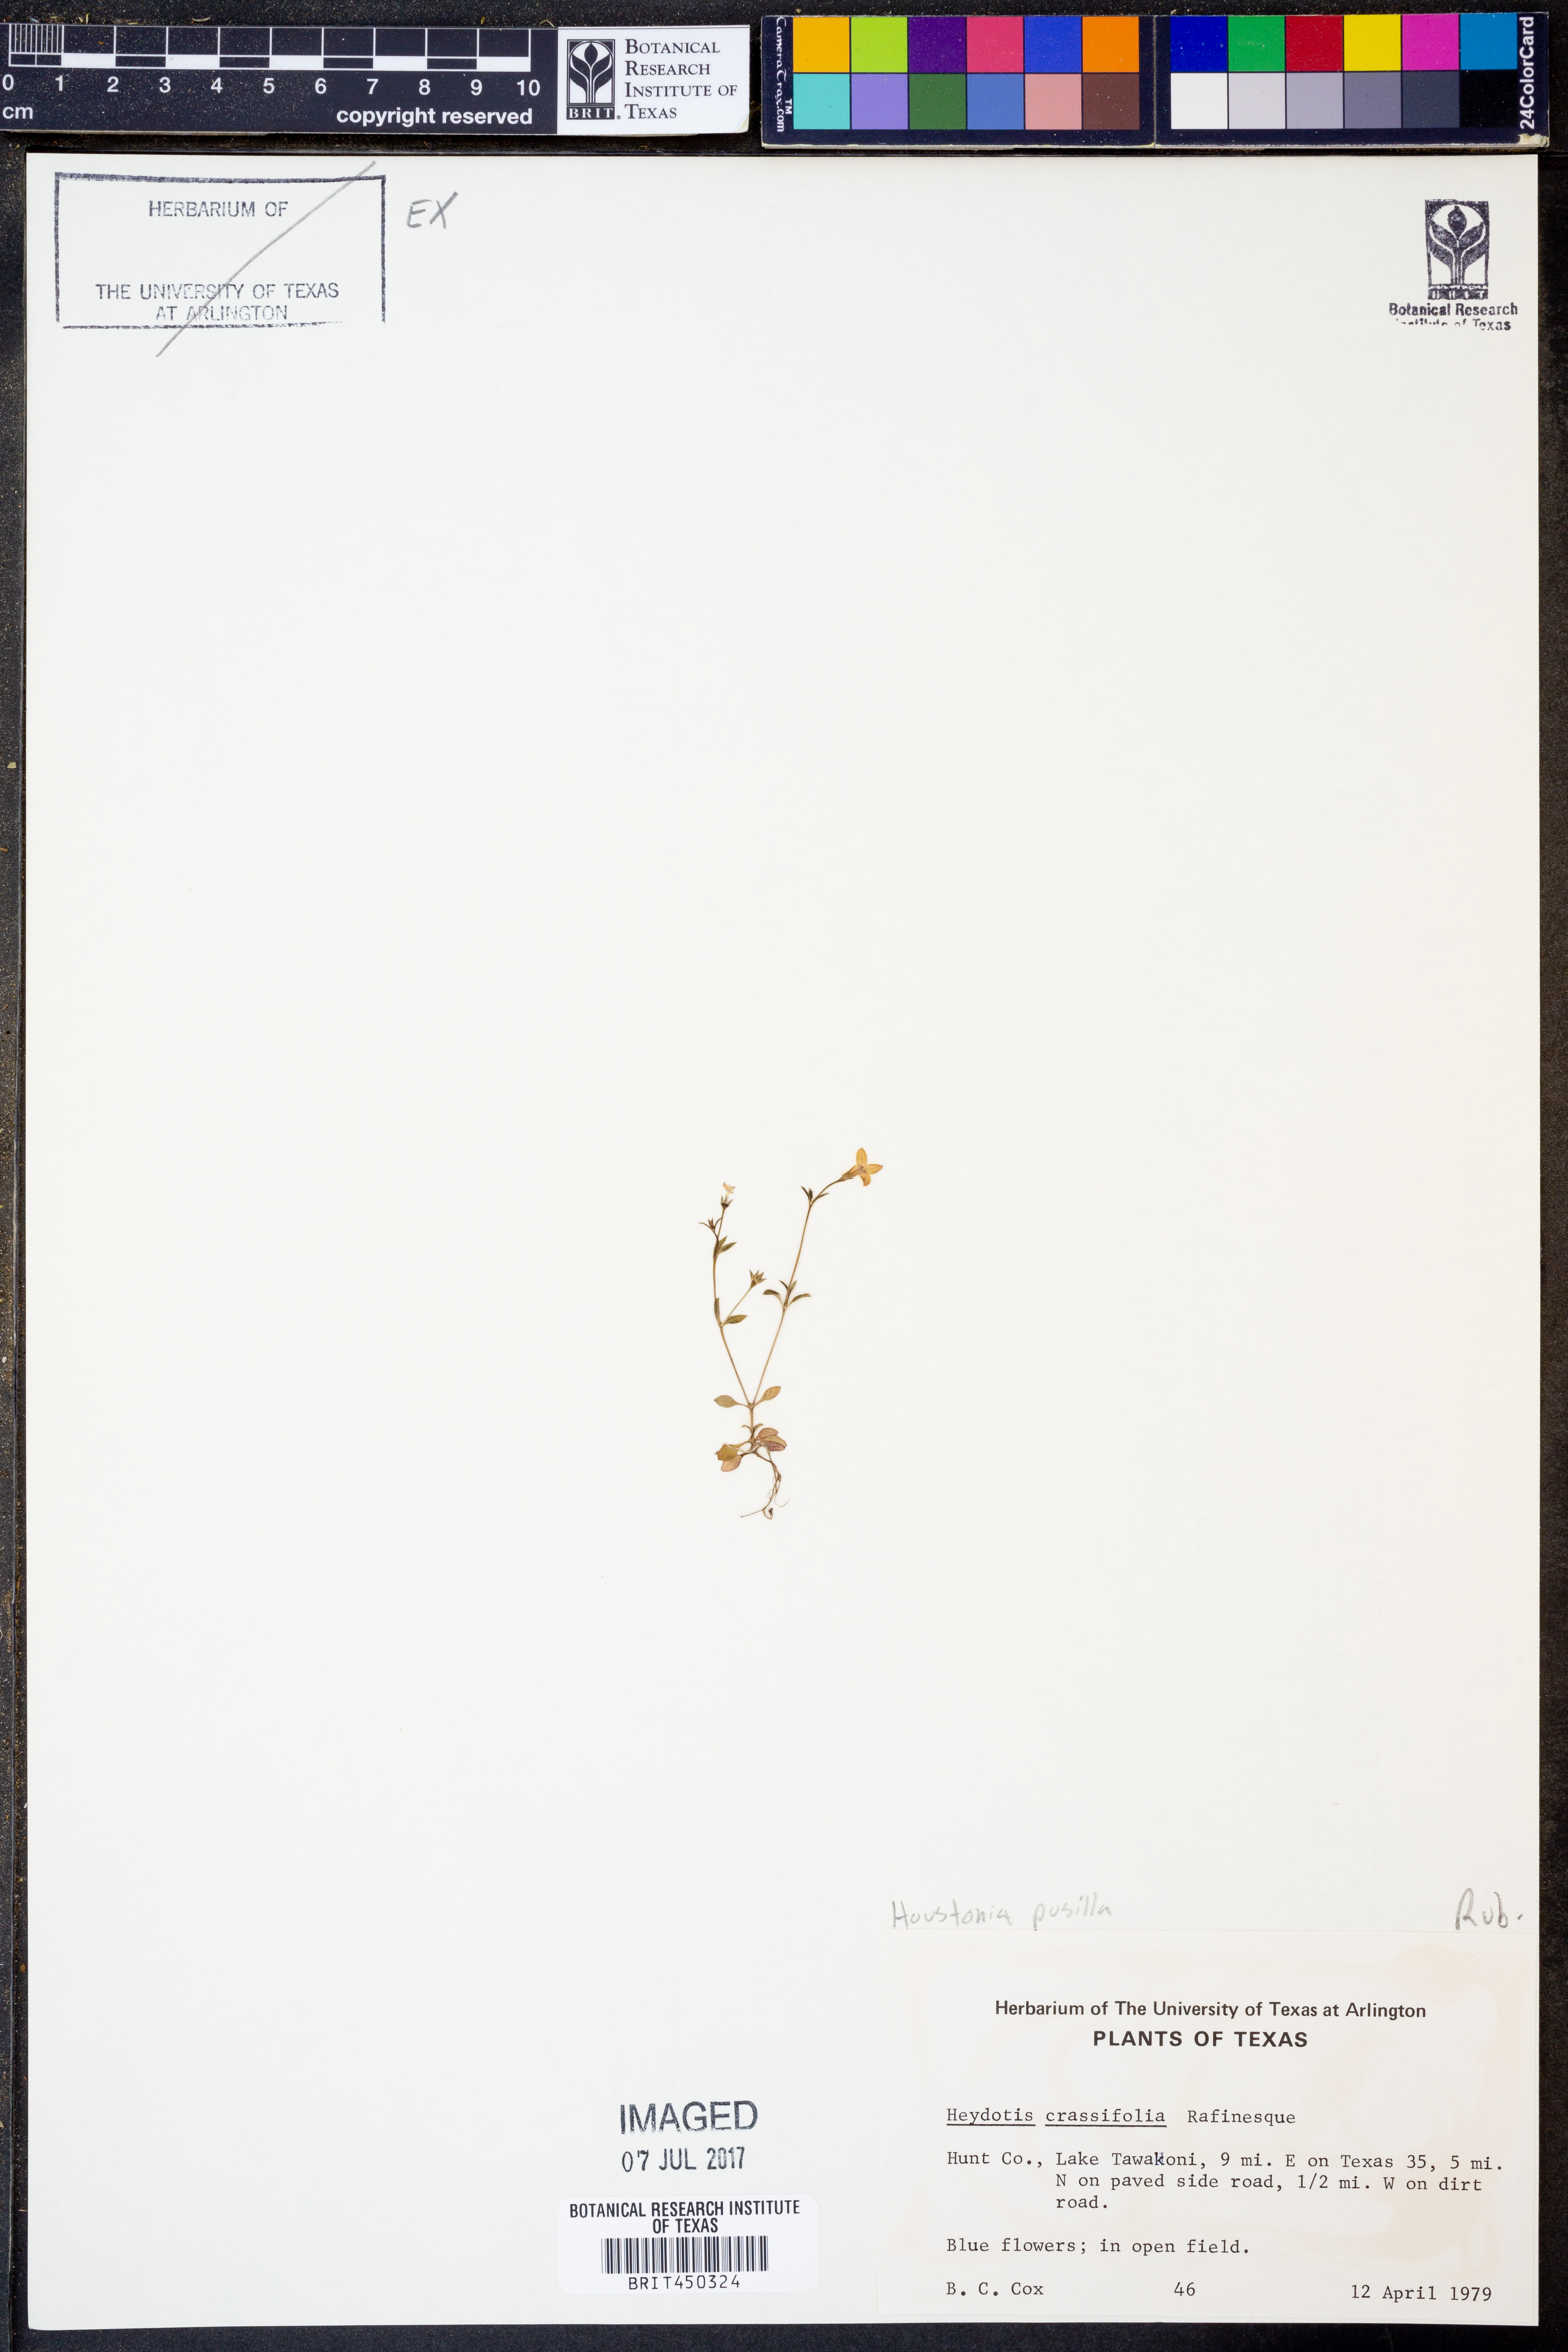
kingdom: Plantae
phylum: Tracheophyta
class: Magnoliopsida
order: Gentianales
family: Rubiaceae
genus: Oldenlandia
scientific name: Oldenlandia corymbosa
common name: Flat-top mille graines
